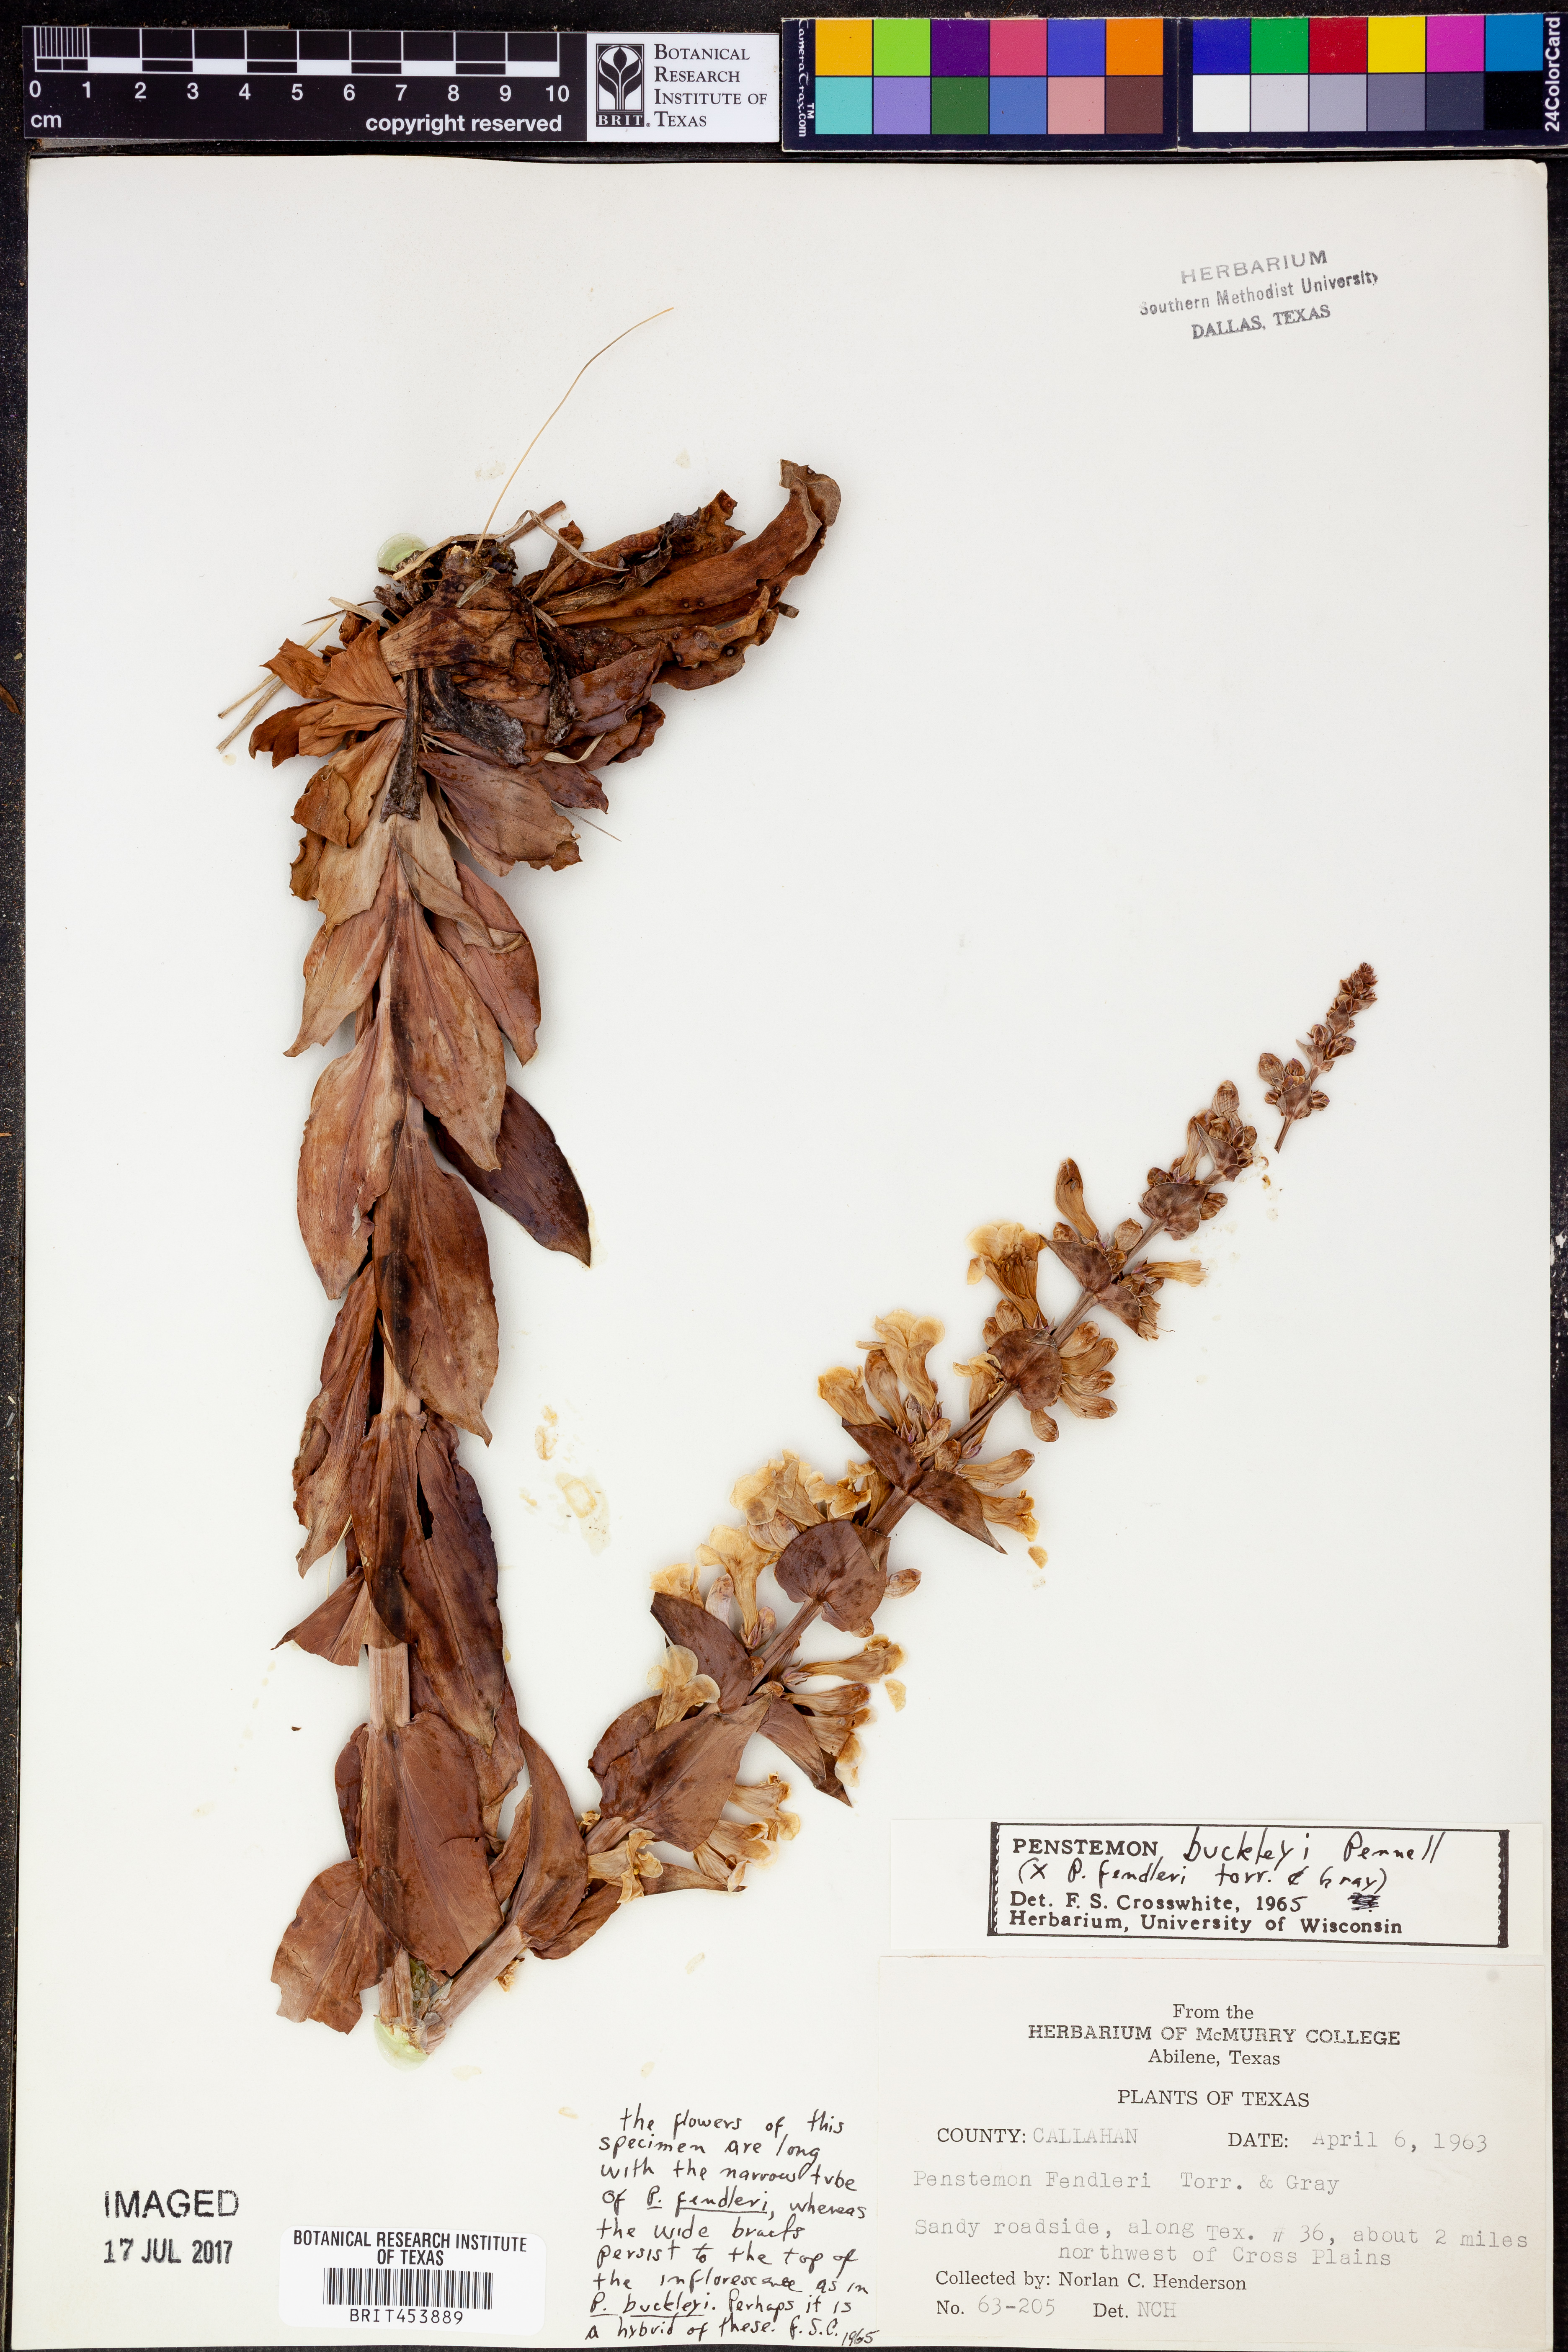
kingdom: Plantae
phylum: Tracheophyta
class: Magnoliopsida
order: Lamiales
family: Plantaginaceae
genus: Penstemon
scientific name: Penstemon buckleyi
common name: Buckley's penstemon
